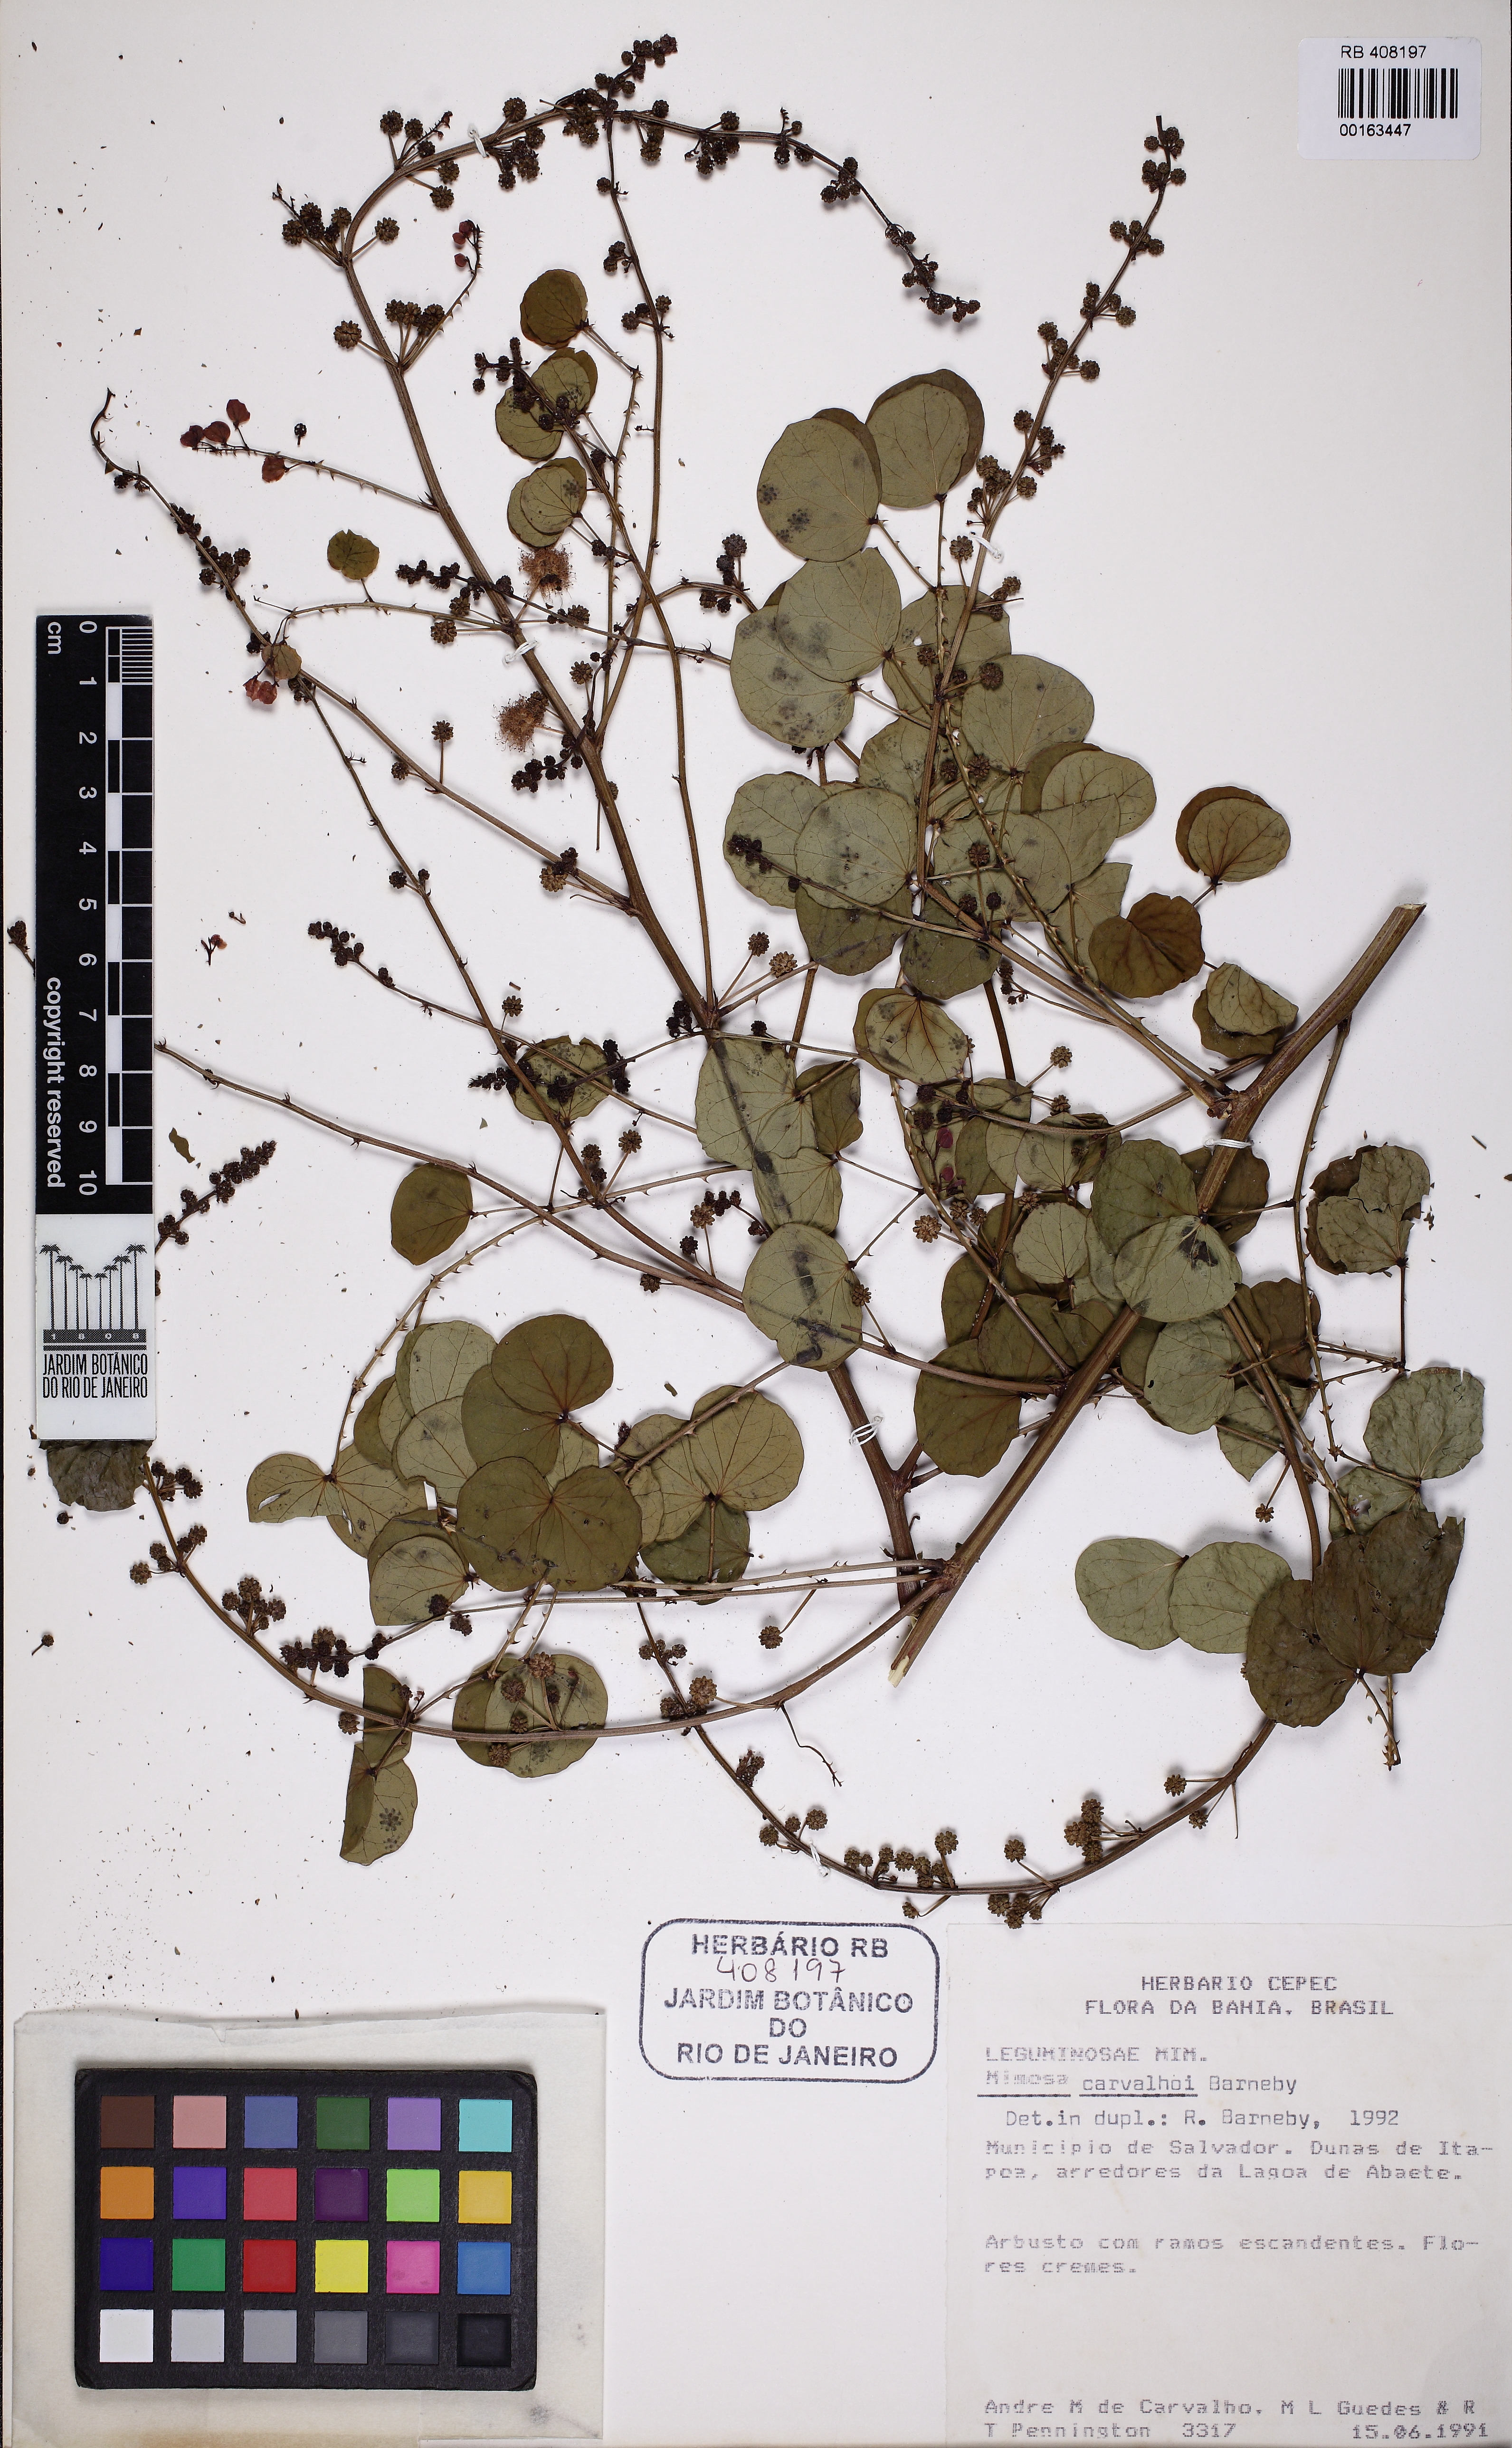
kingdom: Plantae
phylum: Tracheophyta
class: Magnoliopsida
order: Fabales
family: Fabaceae
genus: Mimosa
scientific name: Mimosa carvalhoi
